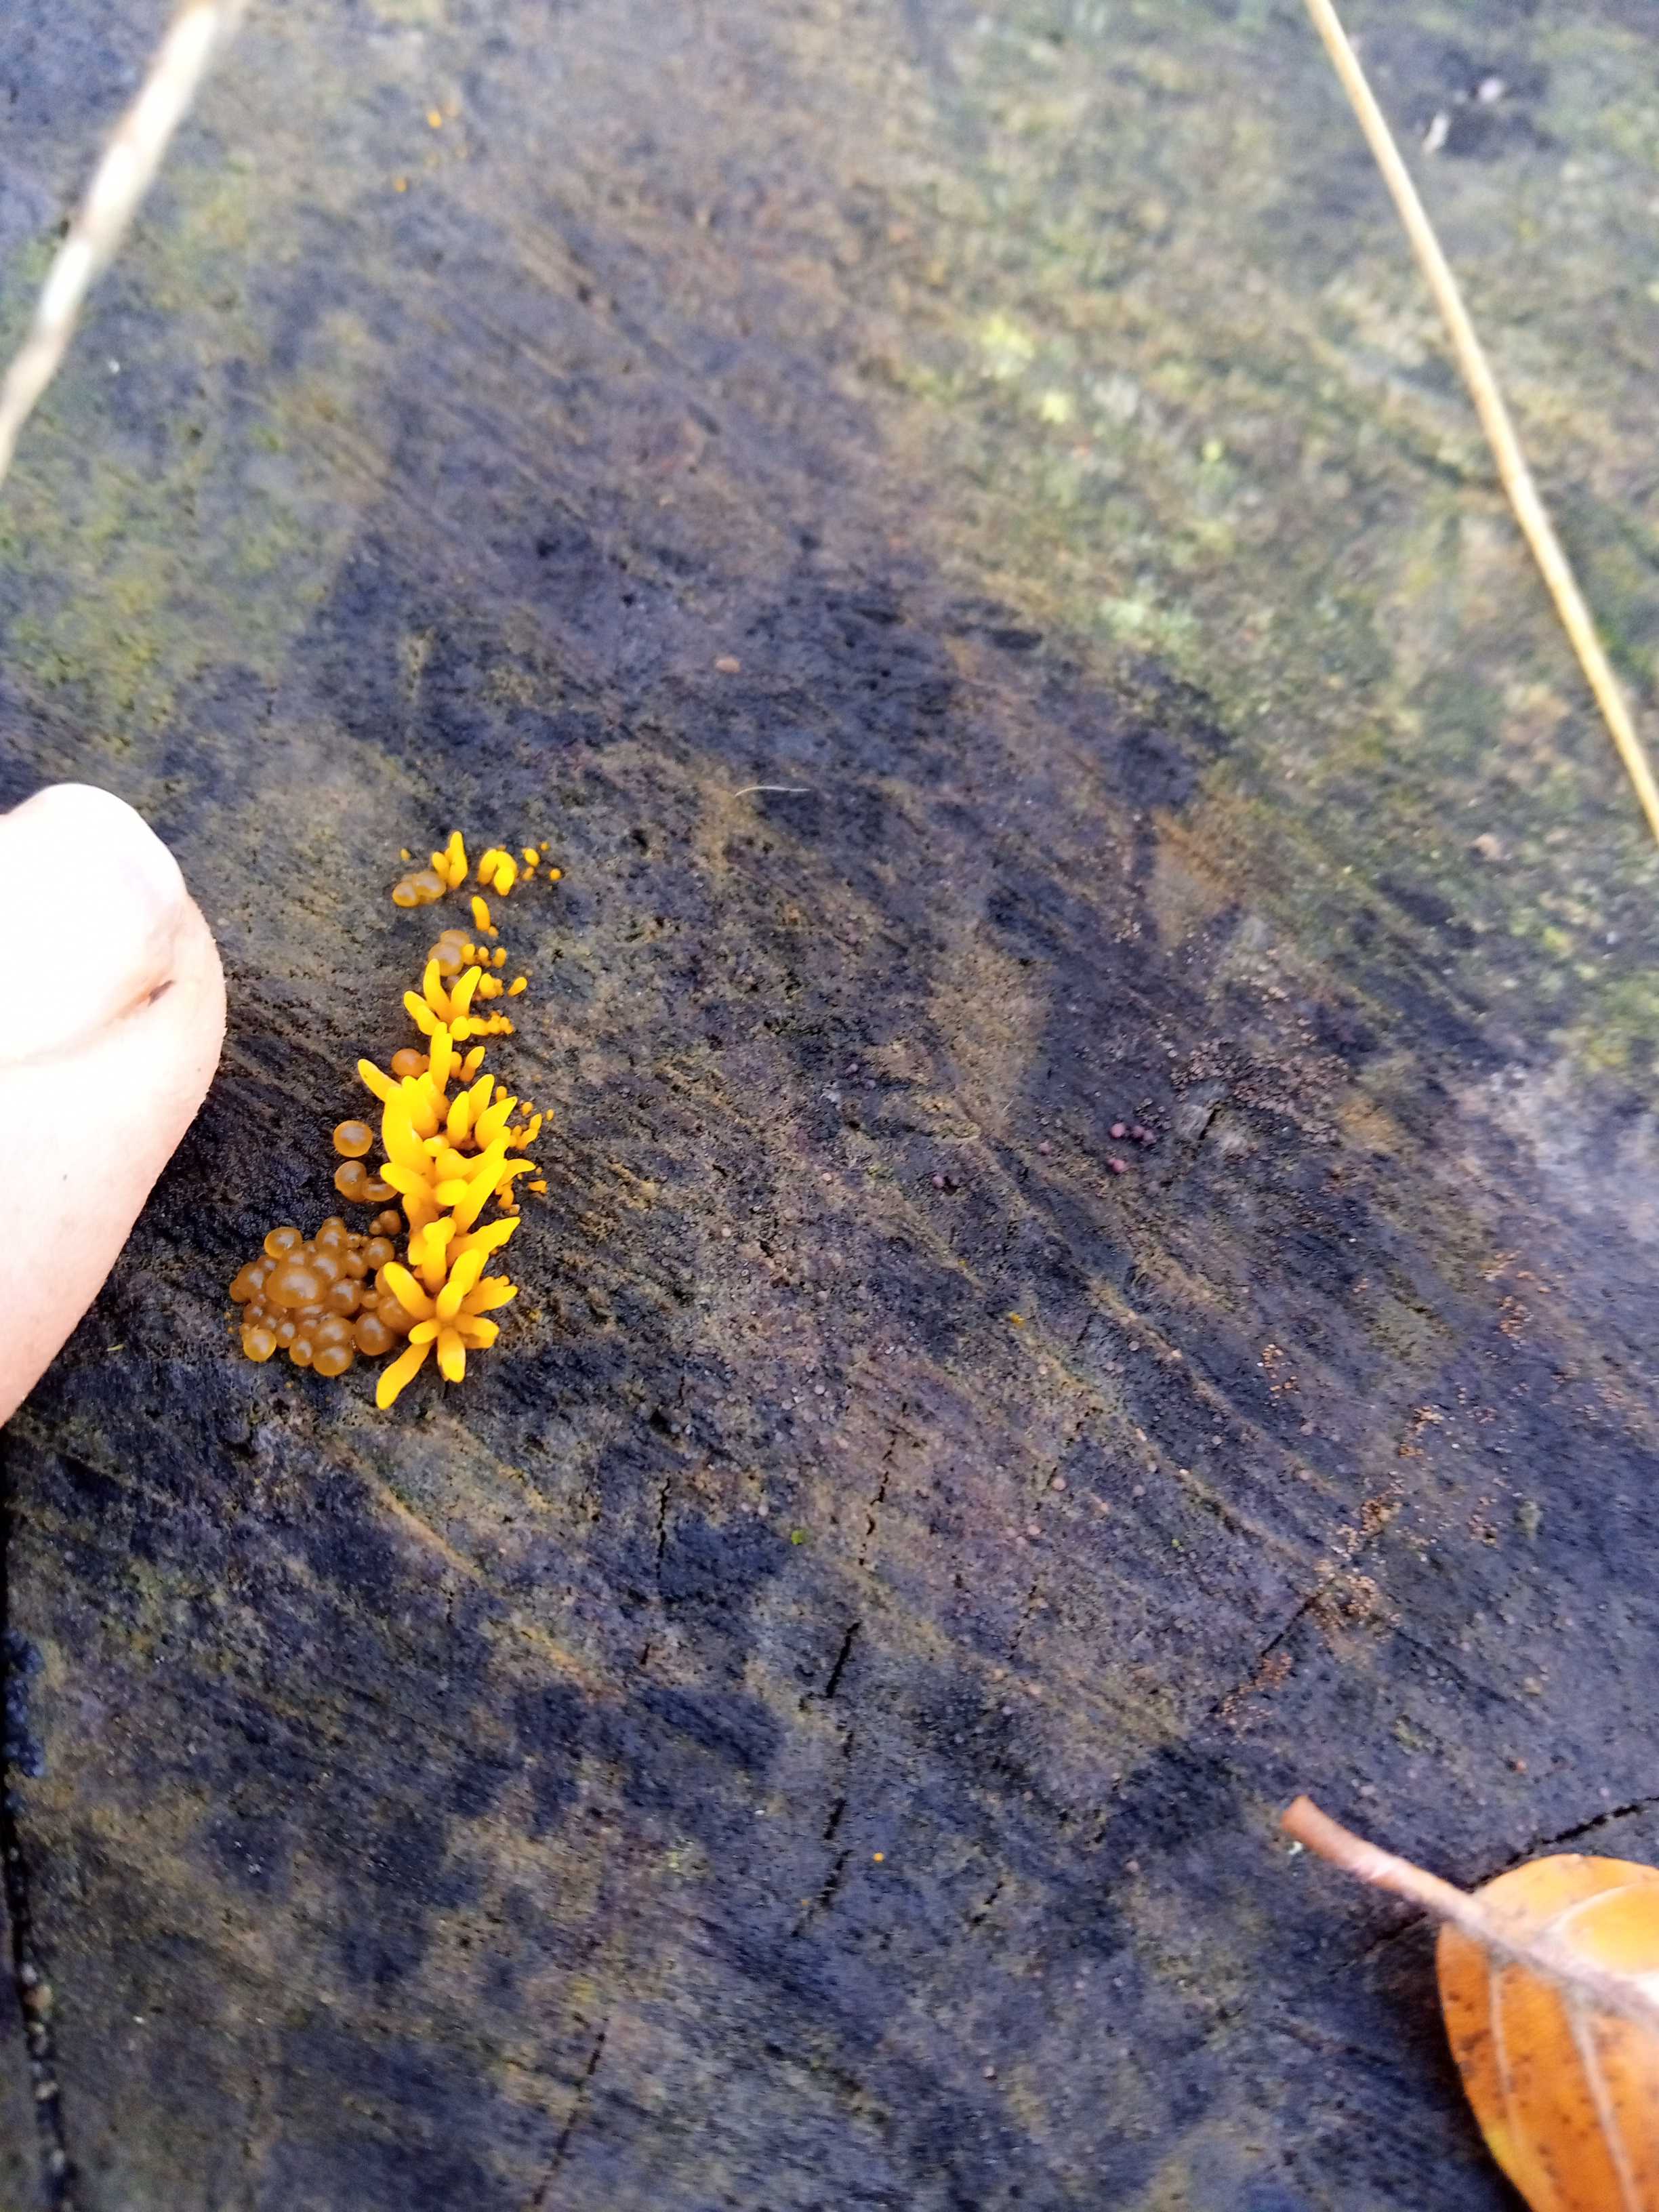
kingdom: Fungi
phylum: Basidiomycota
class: Dacrymycetes
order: Dacrymycetales
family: Dacrymycetaceae
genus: Calocera
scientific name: Calocera cornea
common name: liden guldgaffel
